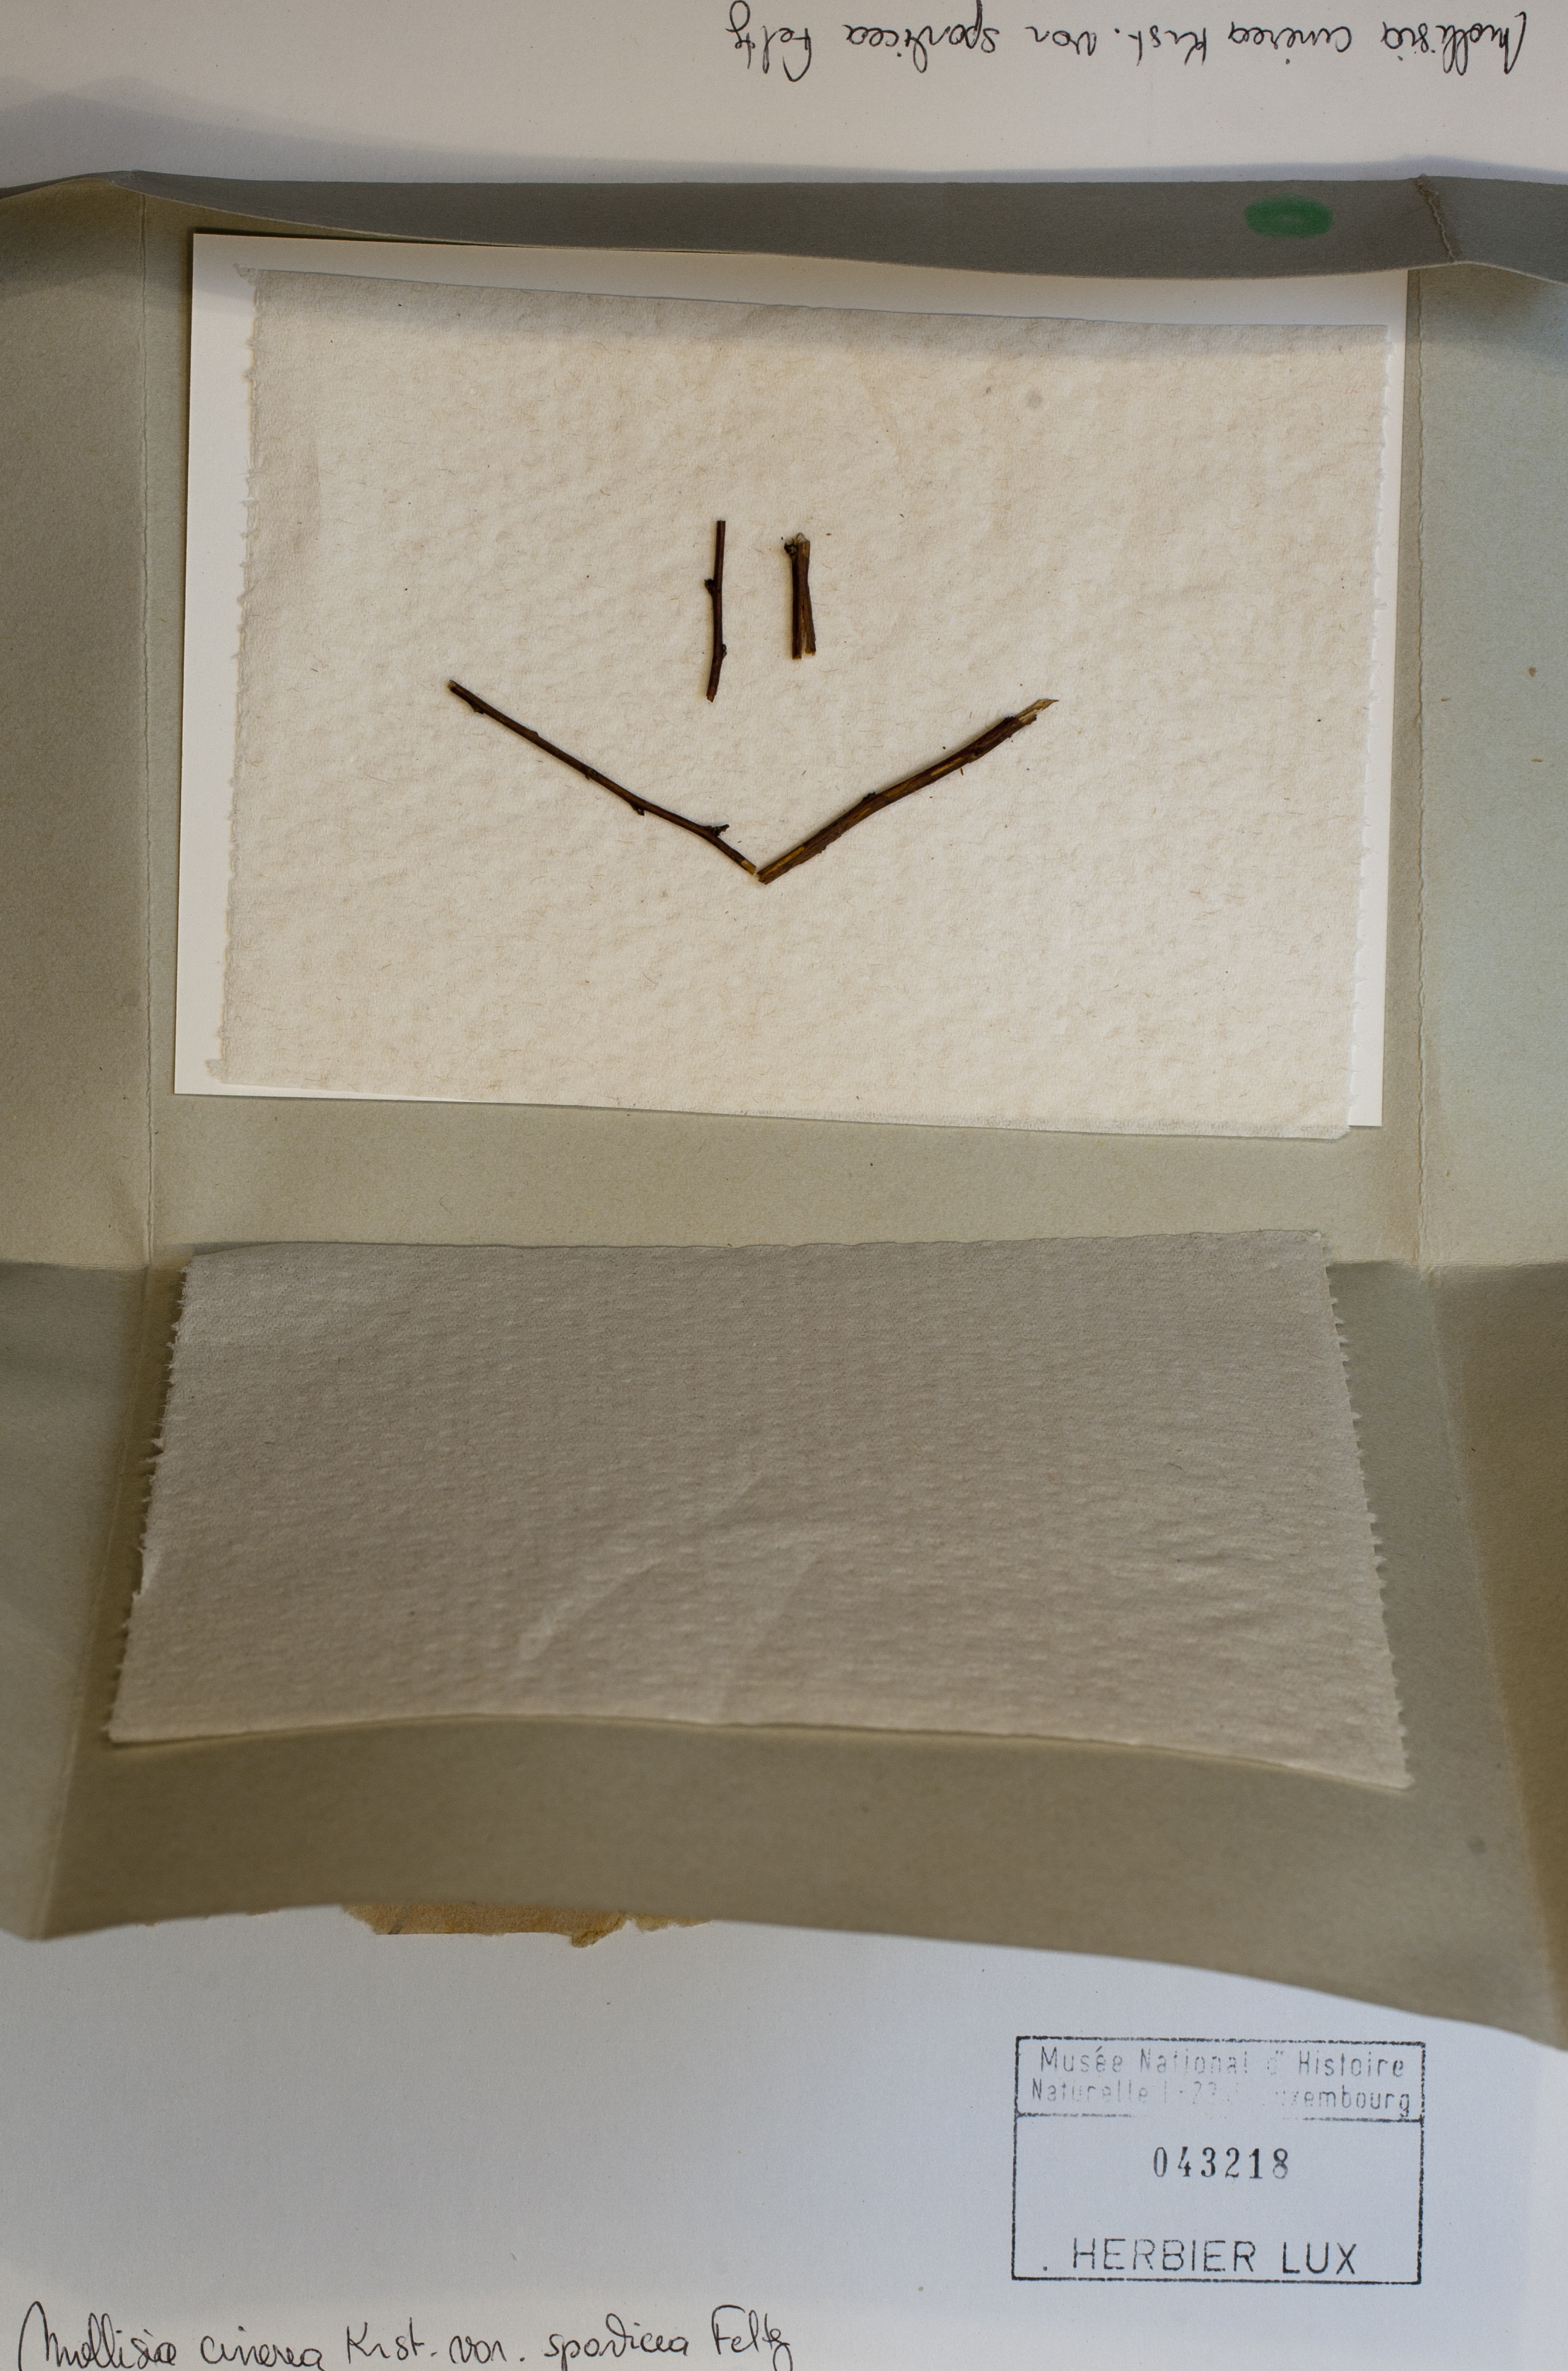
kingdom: Fungi
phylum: Ascomycota
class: Leotiomycetes
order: Helotiales
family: Mollisiaceae
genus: Mollisia
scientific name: Mollisia cinerea
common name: Common grey disco
